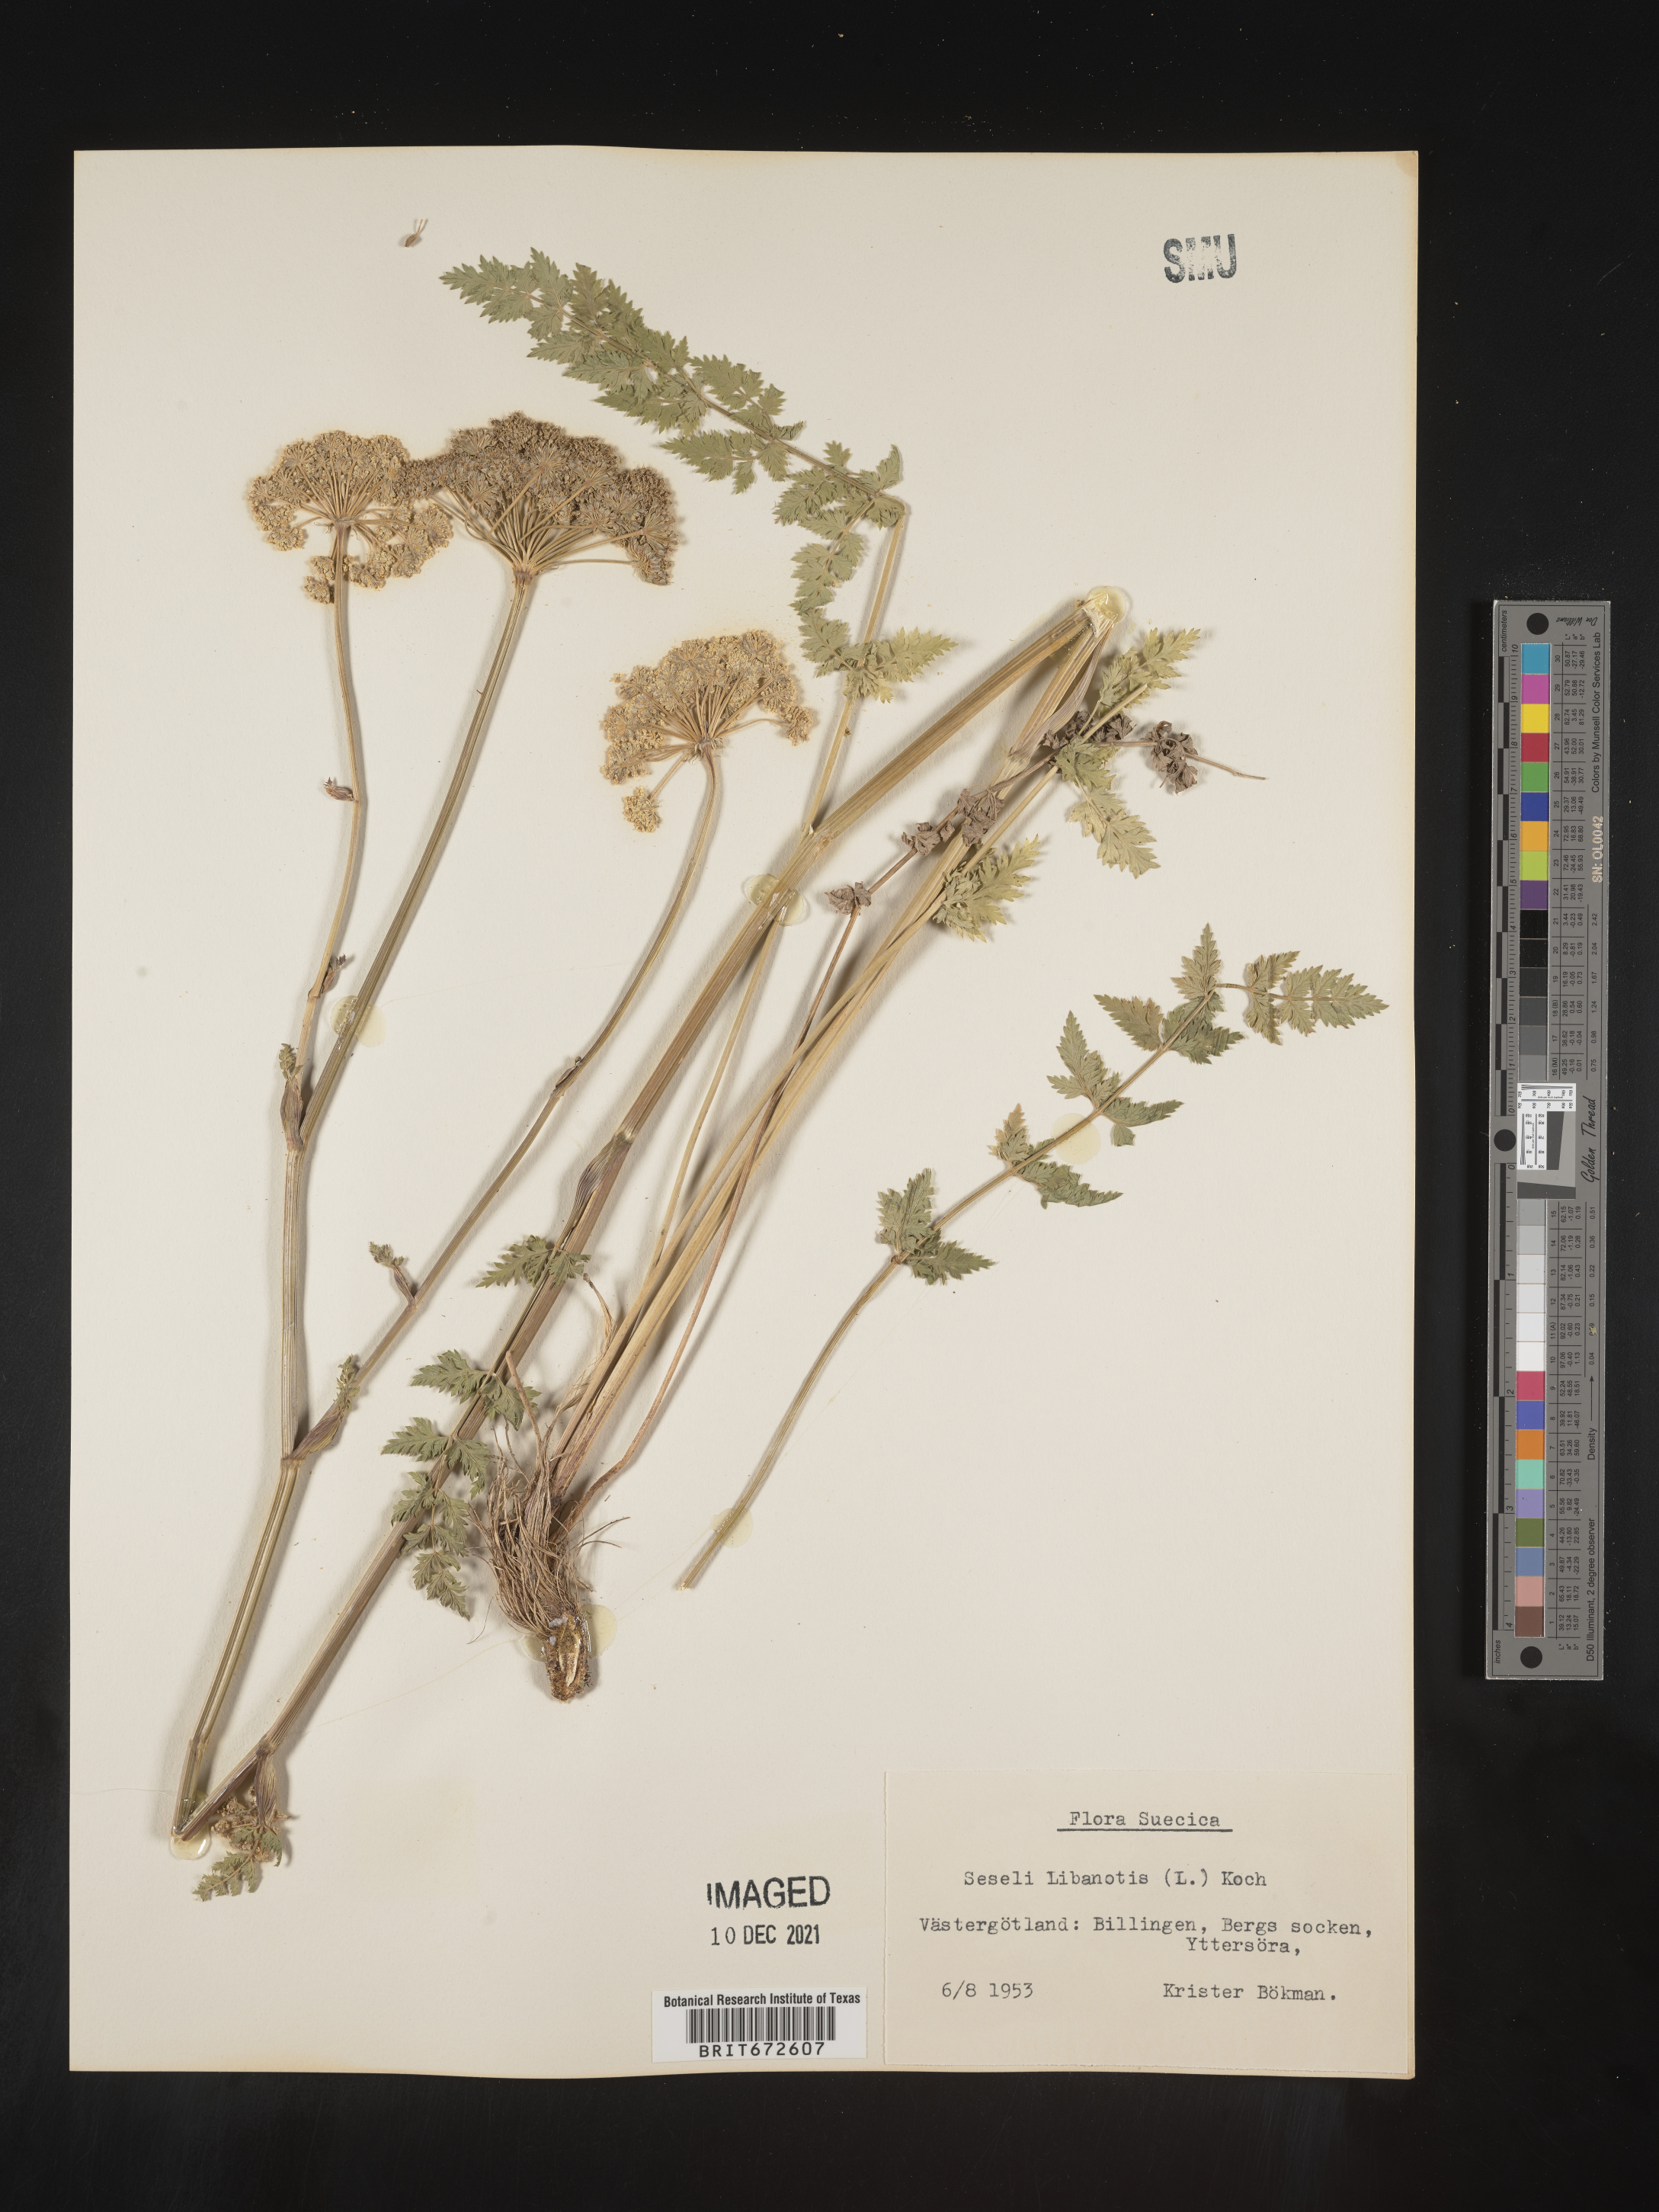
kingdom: Plantae
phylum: Tracheophyta
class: Magnoliopsida
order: Apiales
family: Apiaceae
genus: Seseli
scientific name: Seseli
